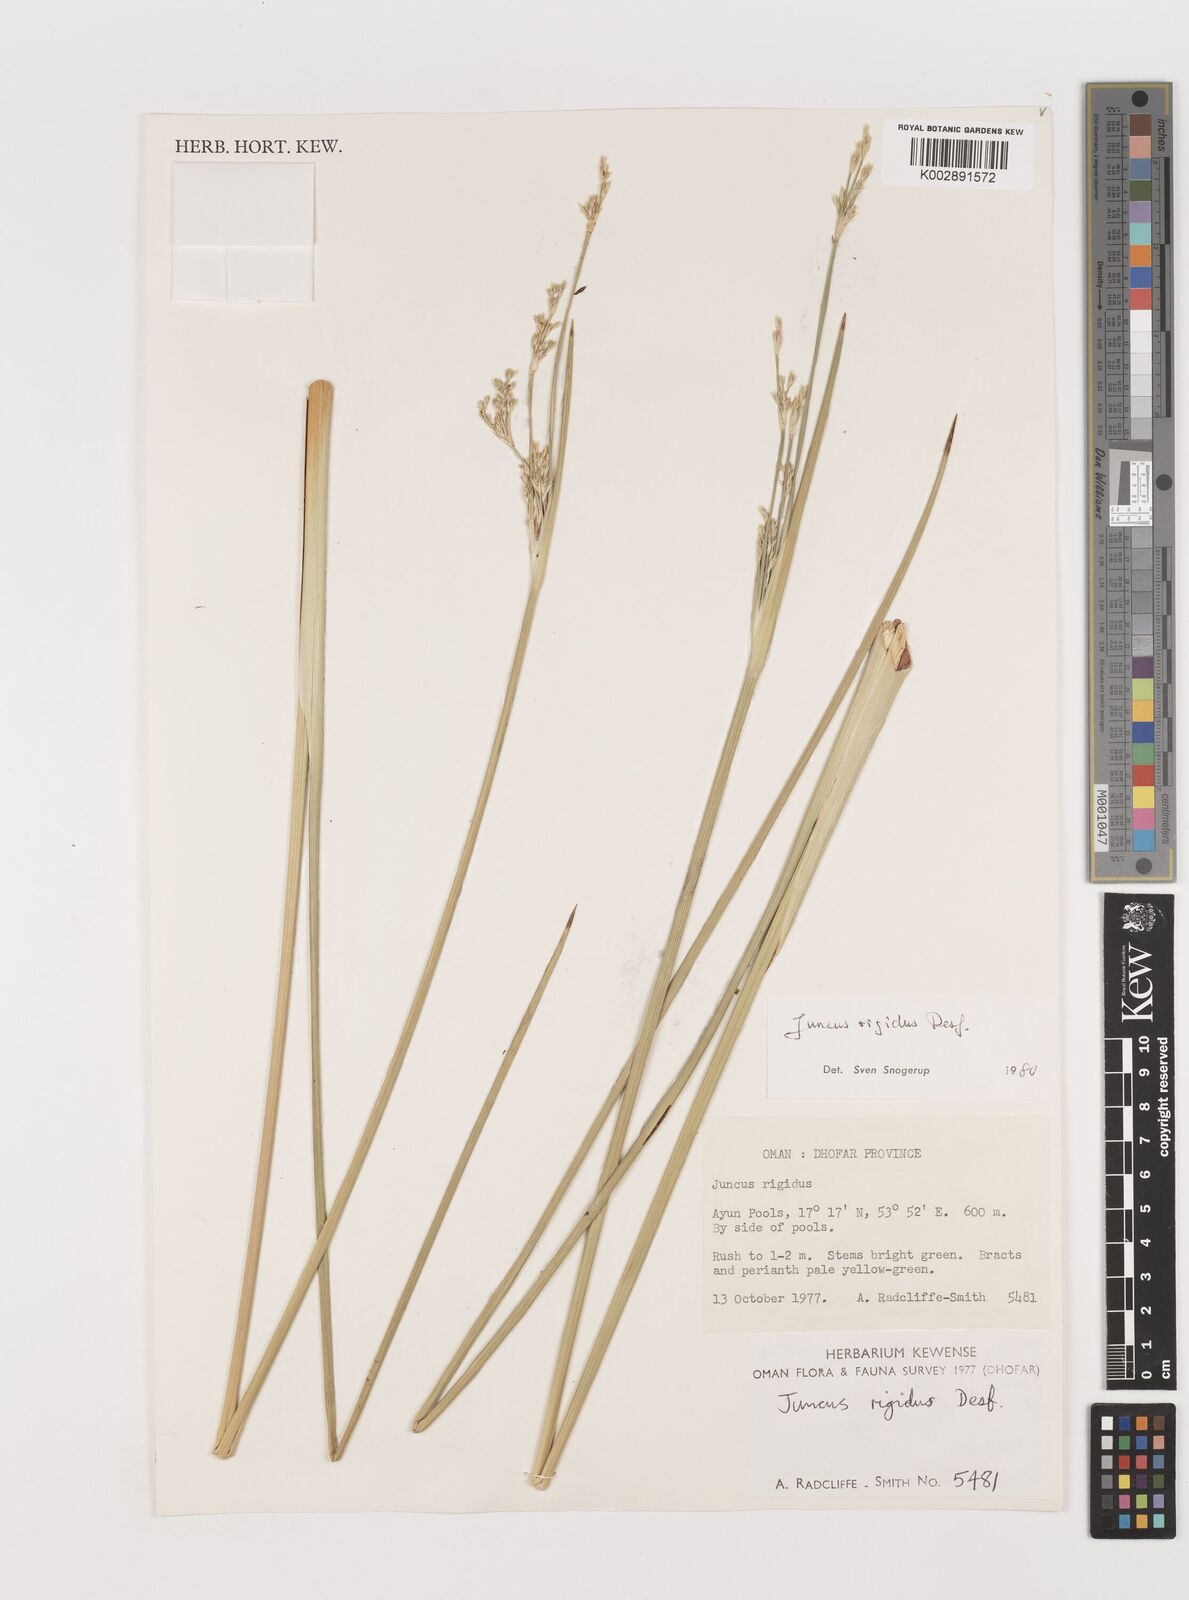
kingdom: Plantae
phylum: Tracheophyta
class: Liliopsida
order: Poales
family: Juncaceae
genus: Juncus
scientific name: Juncus rigidus
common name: Hard sea rush
